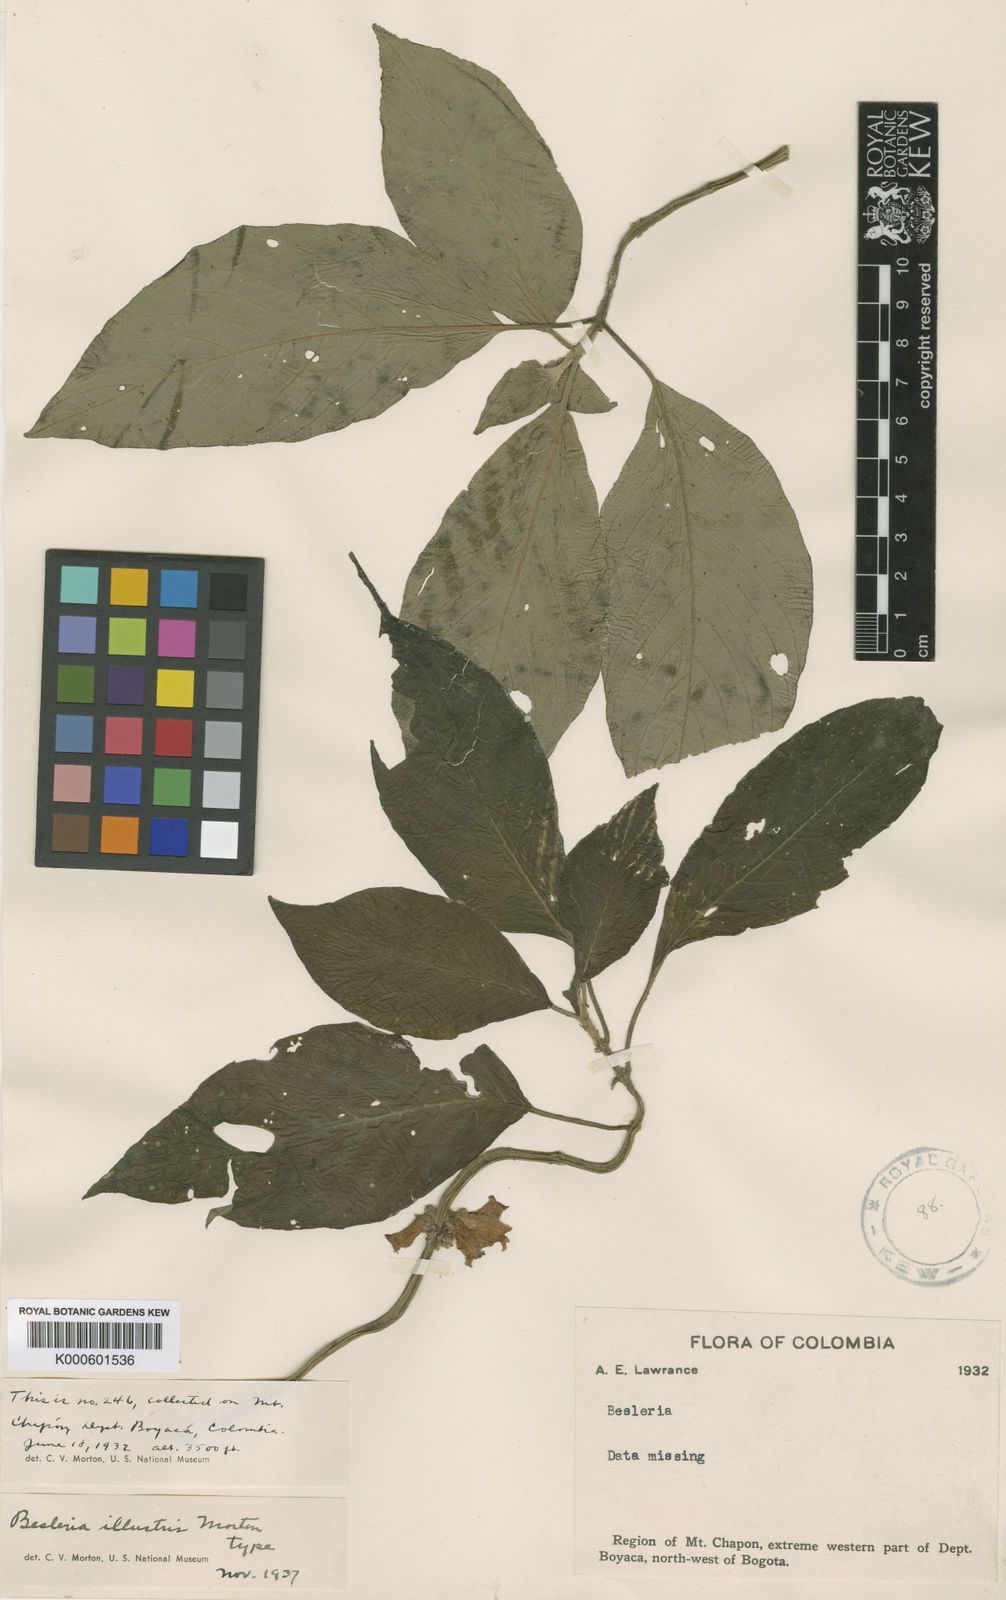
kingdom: Plantae
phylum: Tracheophyta
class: Magnoliopsida
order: Lamiales
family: Gesneriaceae
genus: Besleria
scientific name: Besleria illustris
